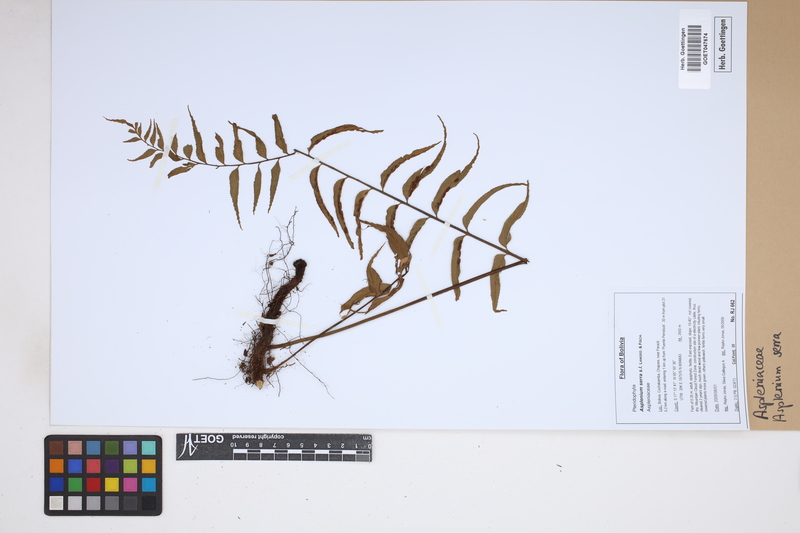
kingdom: Plantae
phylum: Tracheophyta
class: Polypodiopsida
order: Polypodiales
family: Aspleniaceae
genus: Asplenium
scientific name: Asplenium serra
